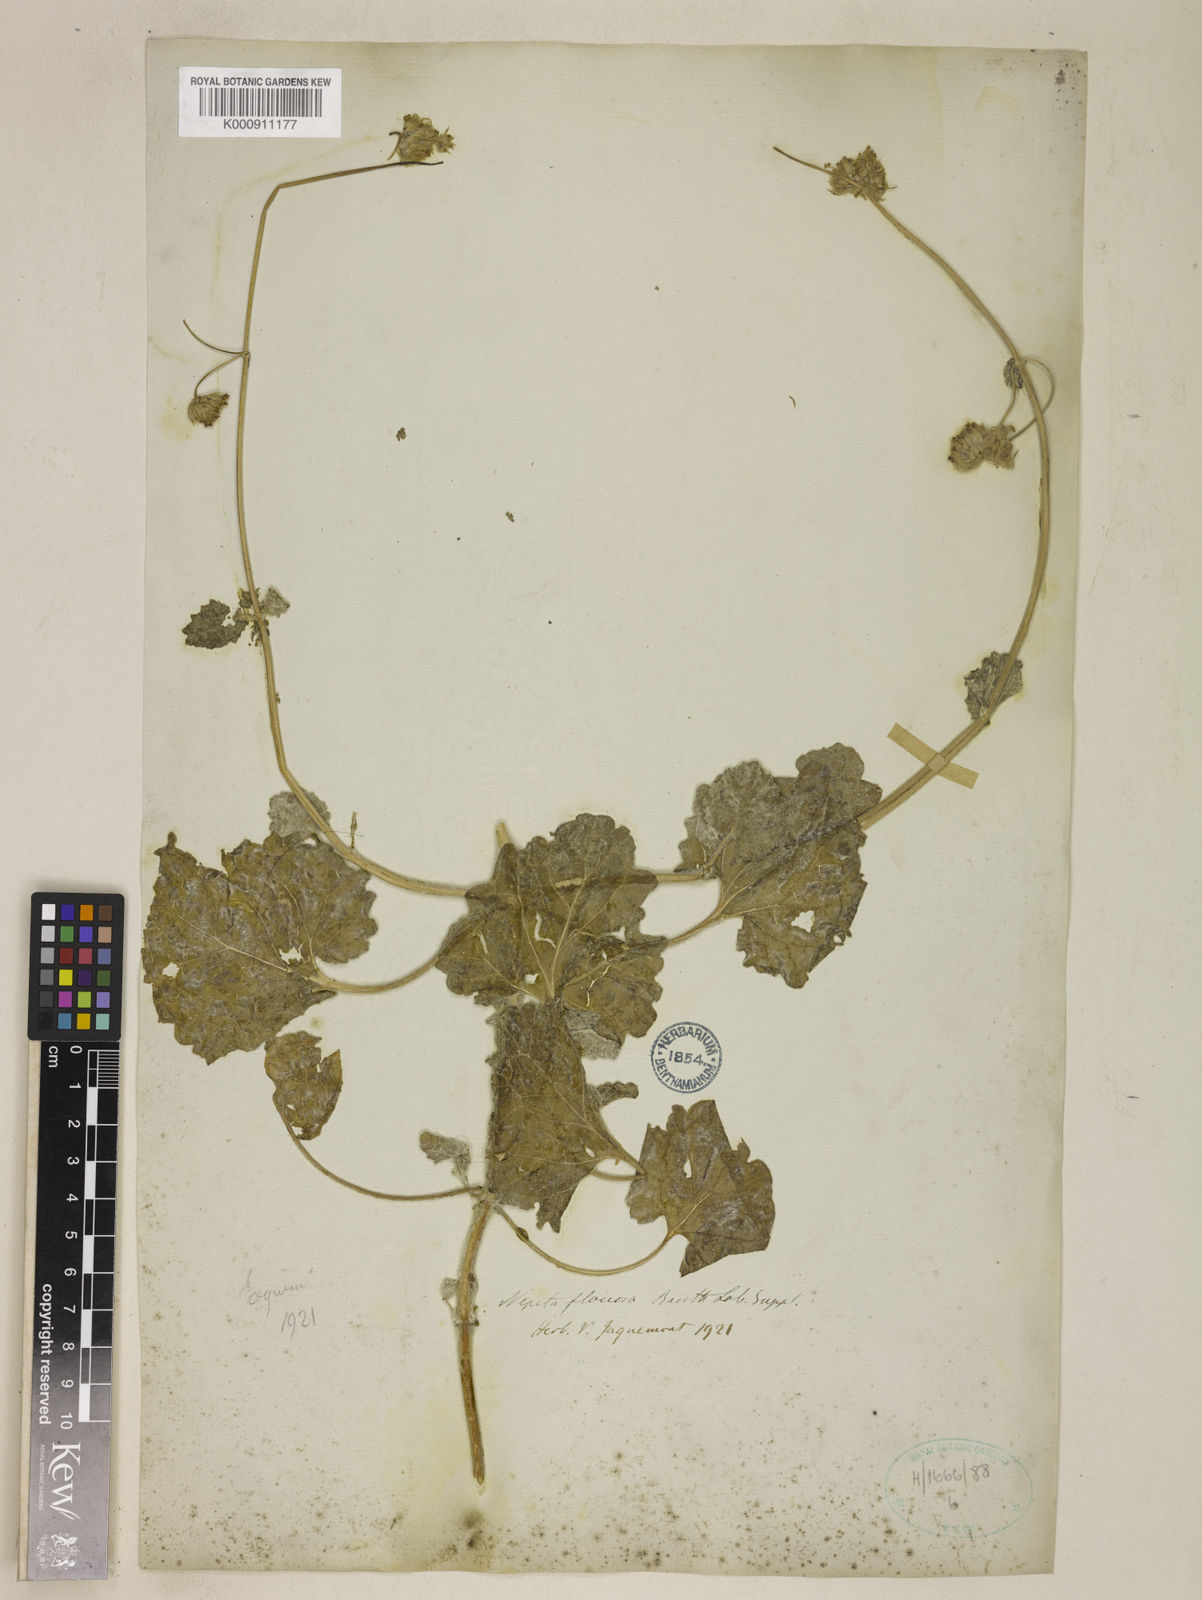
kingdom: Plantae
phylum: Tracheophyta
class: Magnoliopsida
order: Lamiales
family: Lamiaceae
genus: Nepeta
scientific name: Nepeta floccosa
